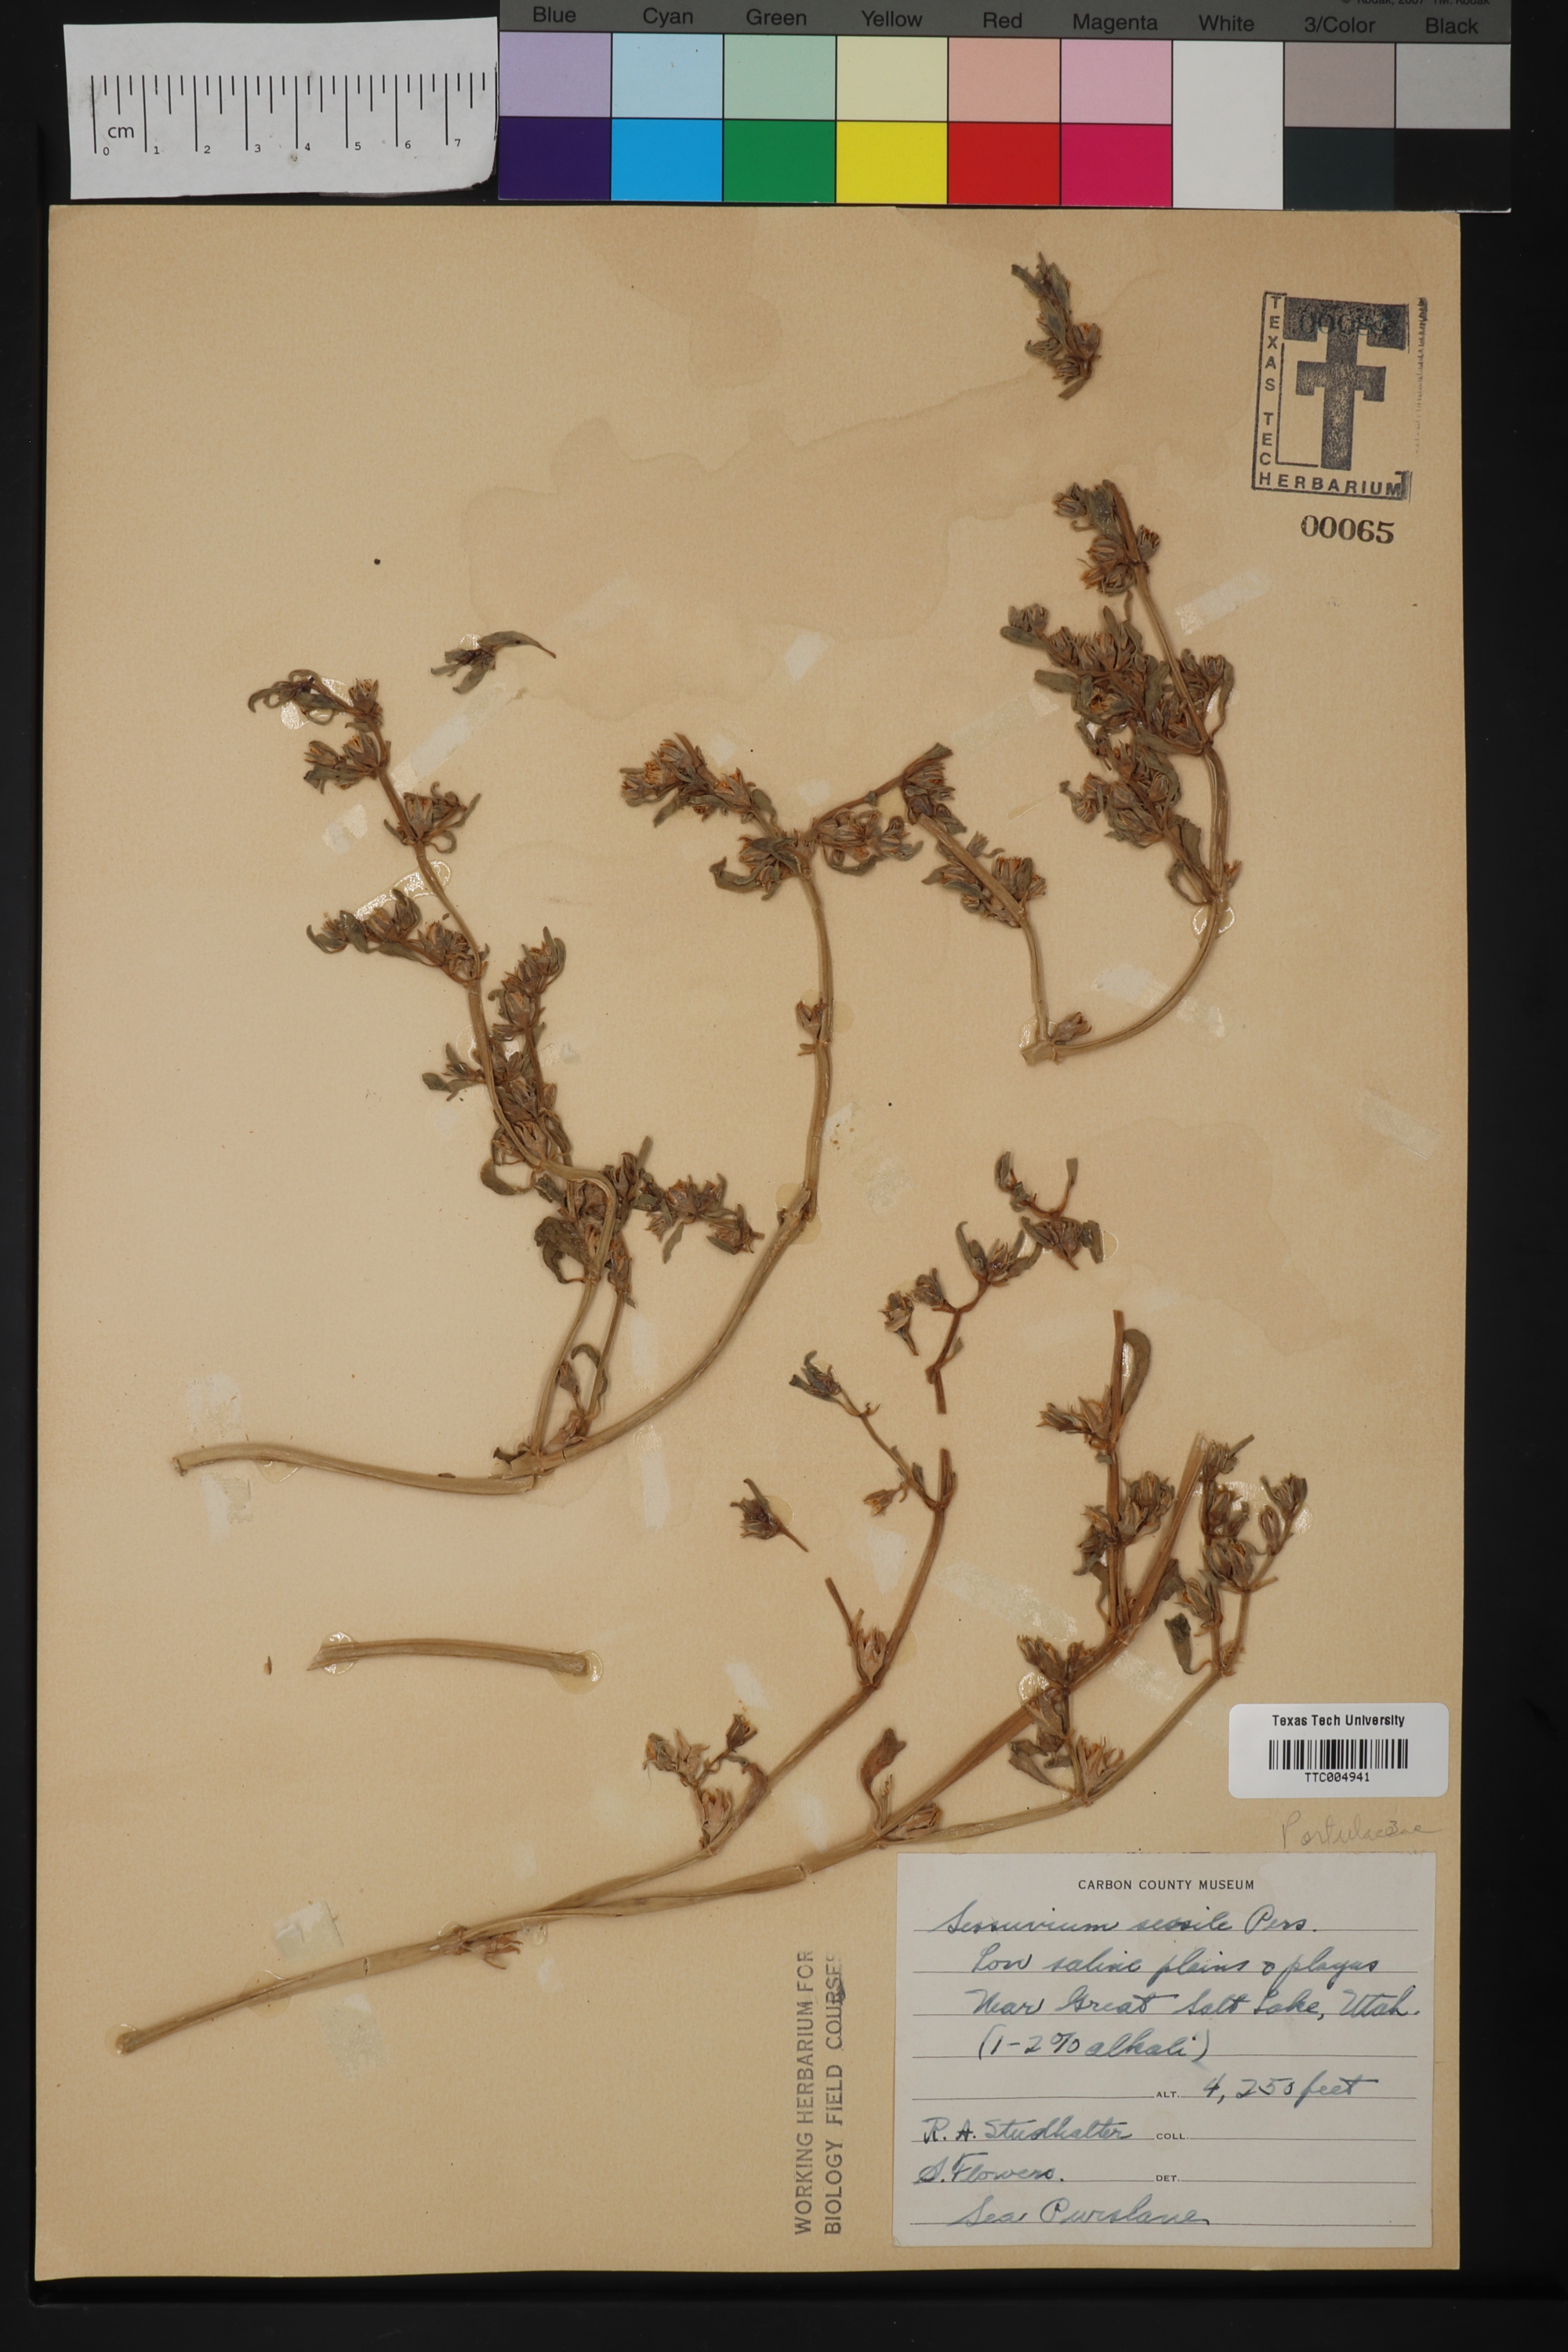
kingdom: Plantae
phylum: Tracheophyta
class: Magnoliopsida
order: Caryophyllales
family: Aizoaceae
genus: Sesuvium
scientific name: Sesuvium portulacastrum
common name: Sea-purslane
